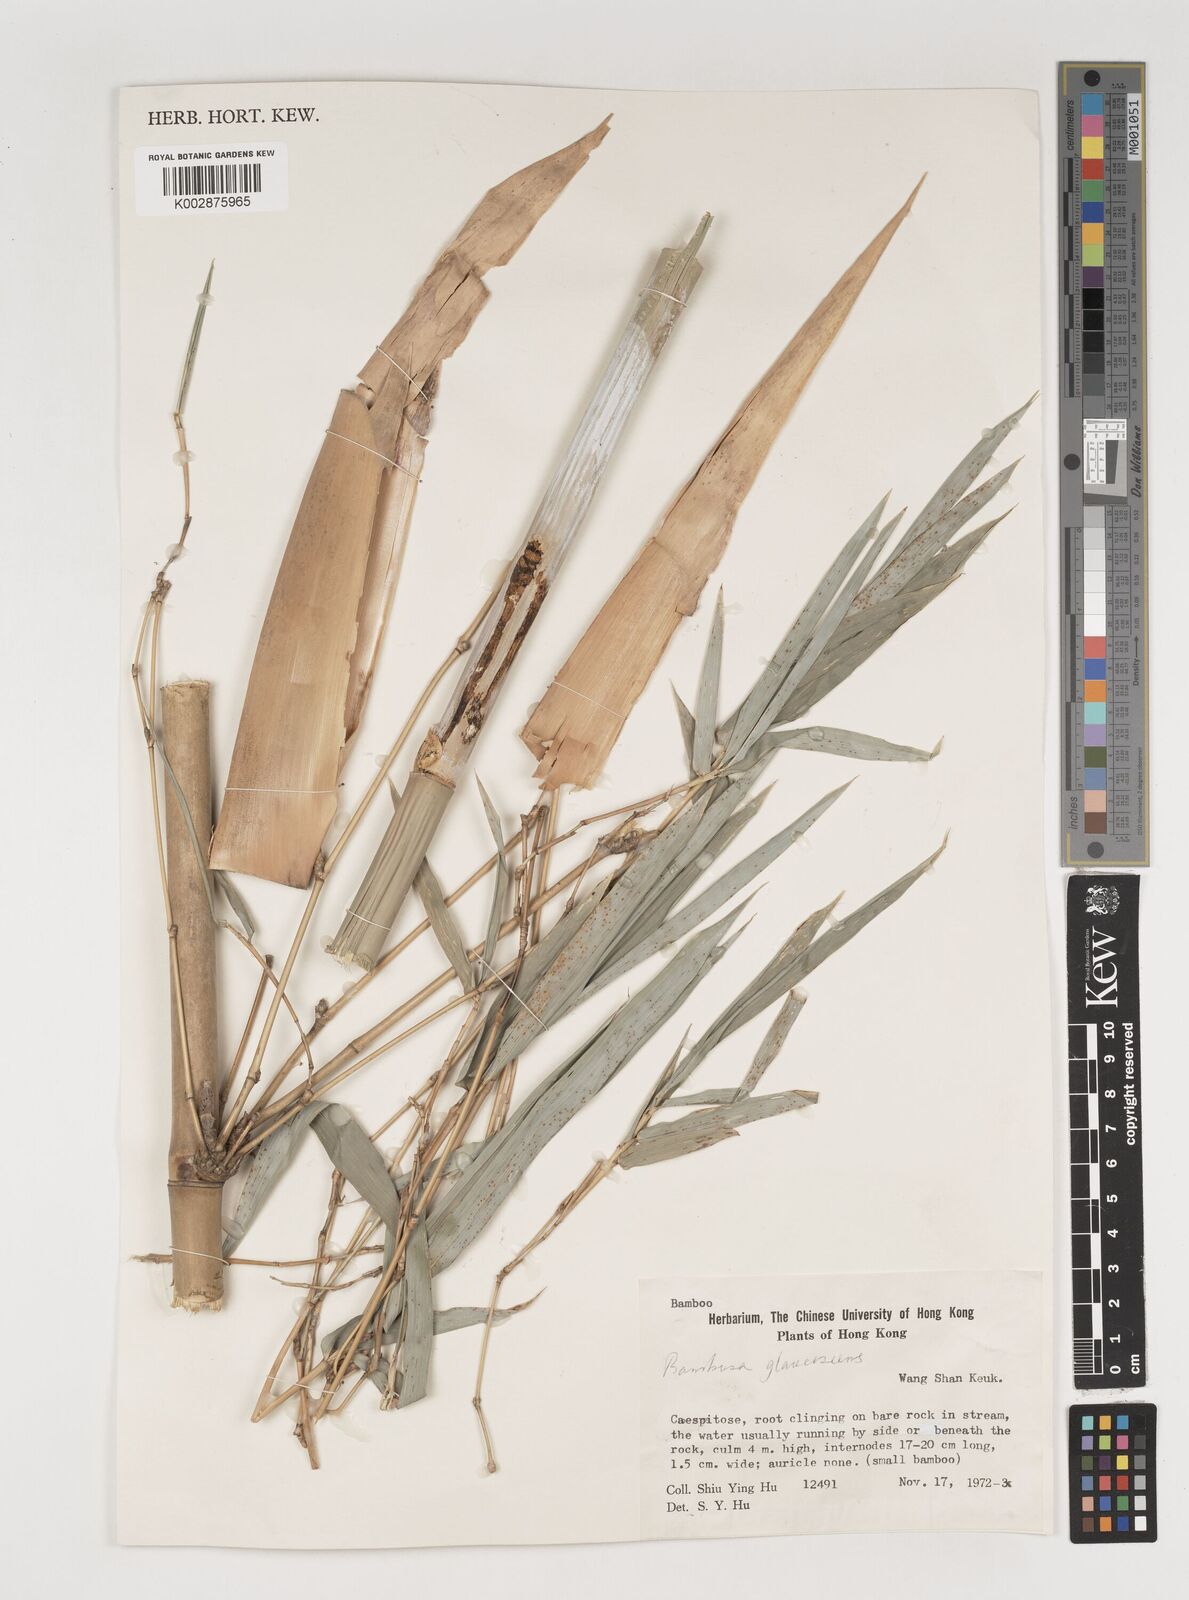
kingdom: Plantae
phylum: Tracheophyta
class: Liliopsida
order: Poales
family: Poaceae
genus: Bambusa
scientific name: Bambusa multiplex
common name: Hedge bamboo
